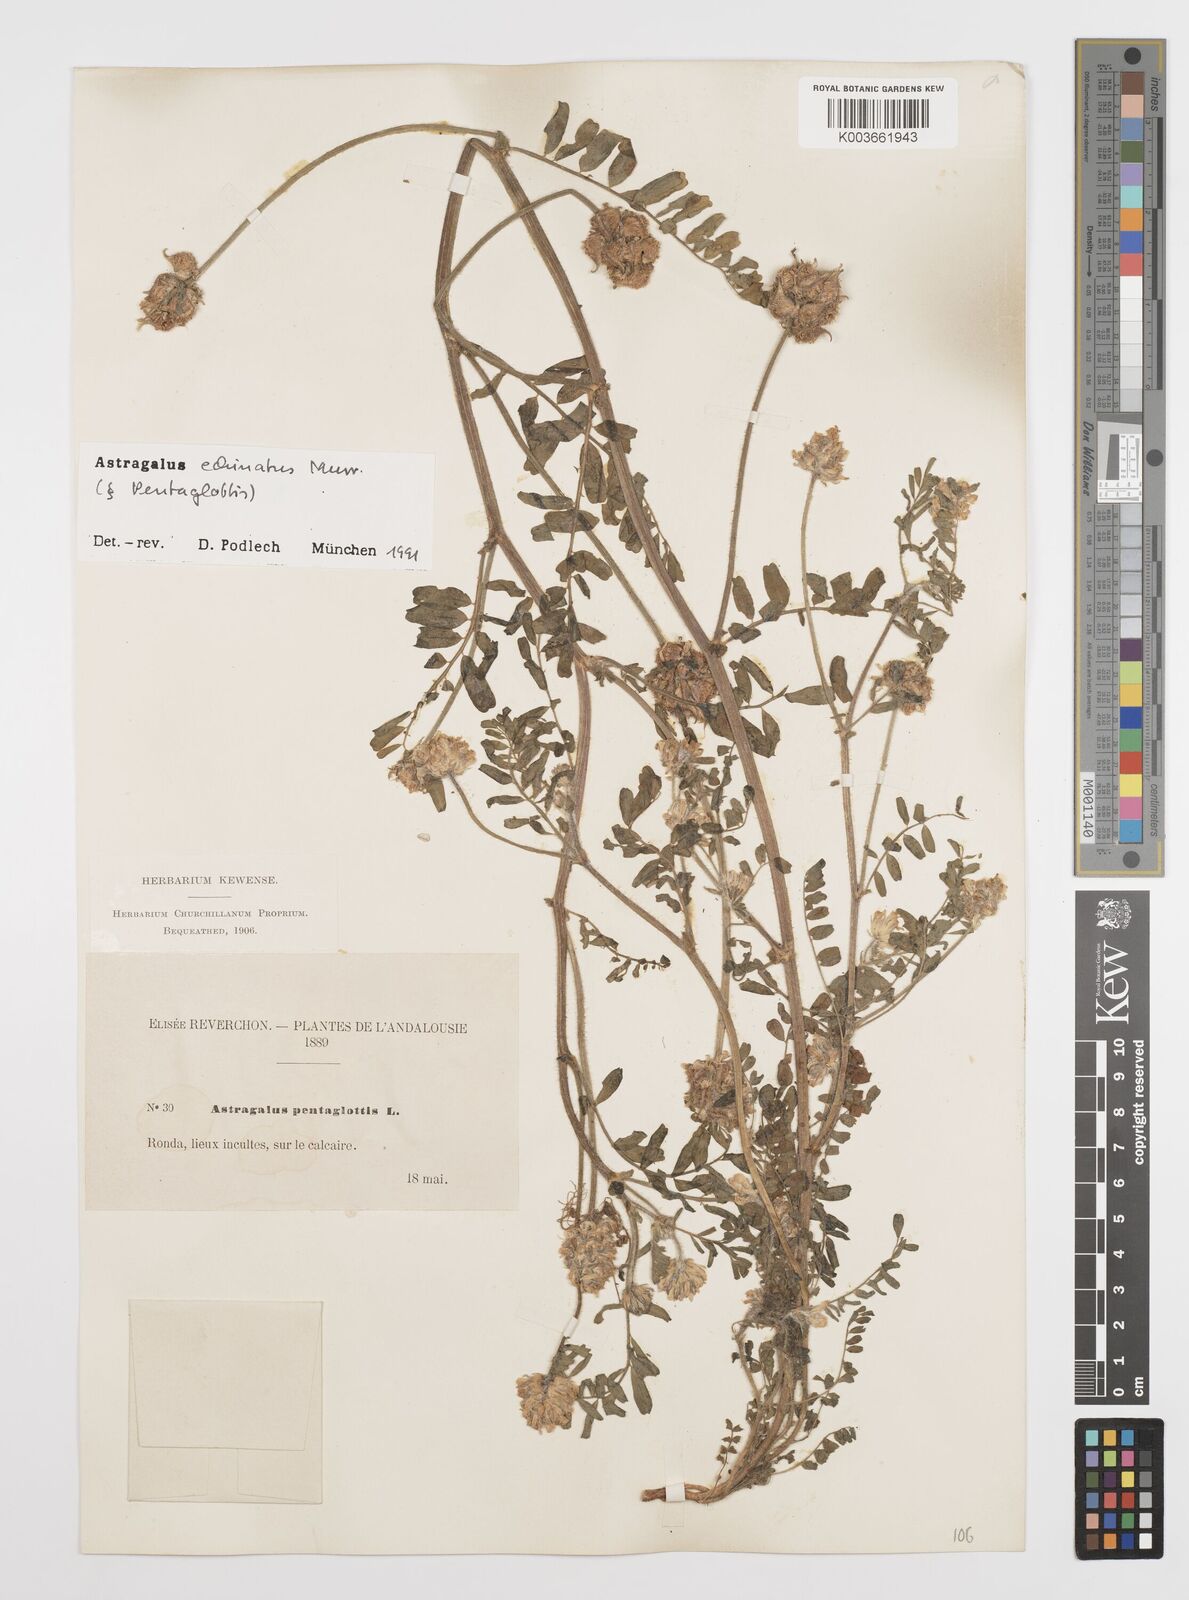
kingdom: Plantae
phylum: Tracheophyta
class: Magnoliopsida
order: Fabales
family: Fabaceae
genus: Astragalus
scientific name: Astragalus echinatus
